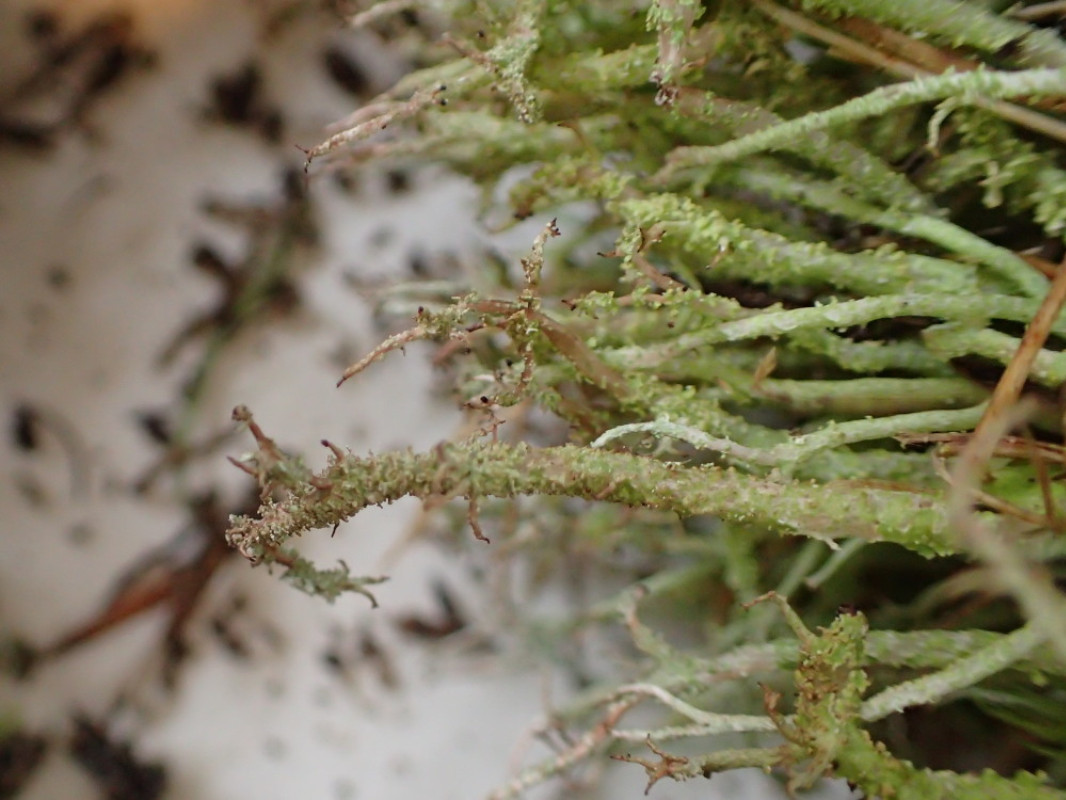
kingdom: Fungi
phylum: Ascomycota
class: Lecanoromycetes
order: Lecanorales
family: Cladoniaceae
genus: Cladonia
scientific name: Cladonia scabriuscula
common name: ru bægerlav
